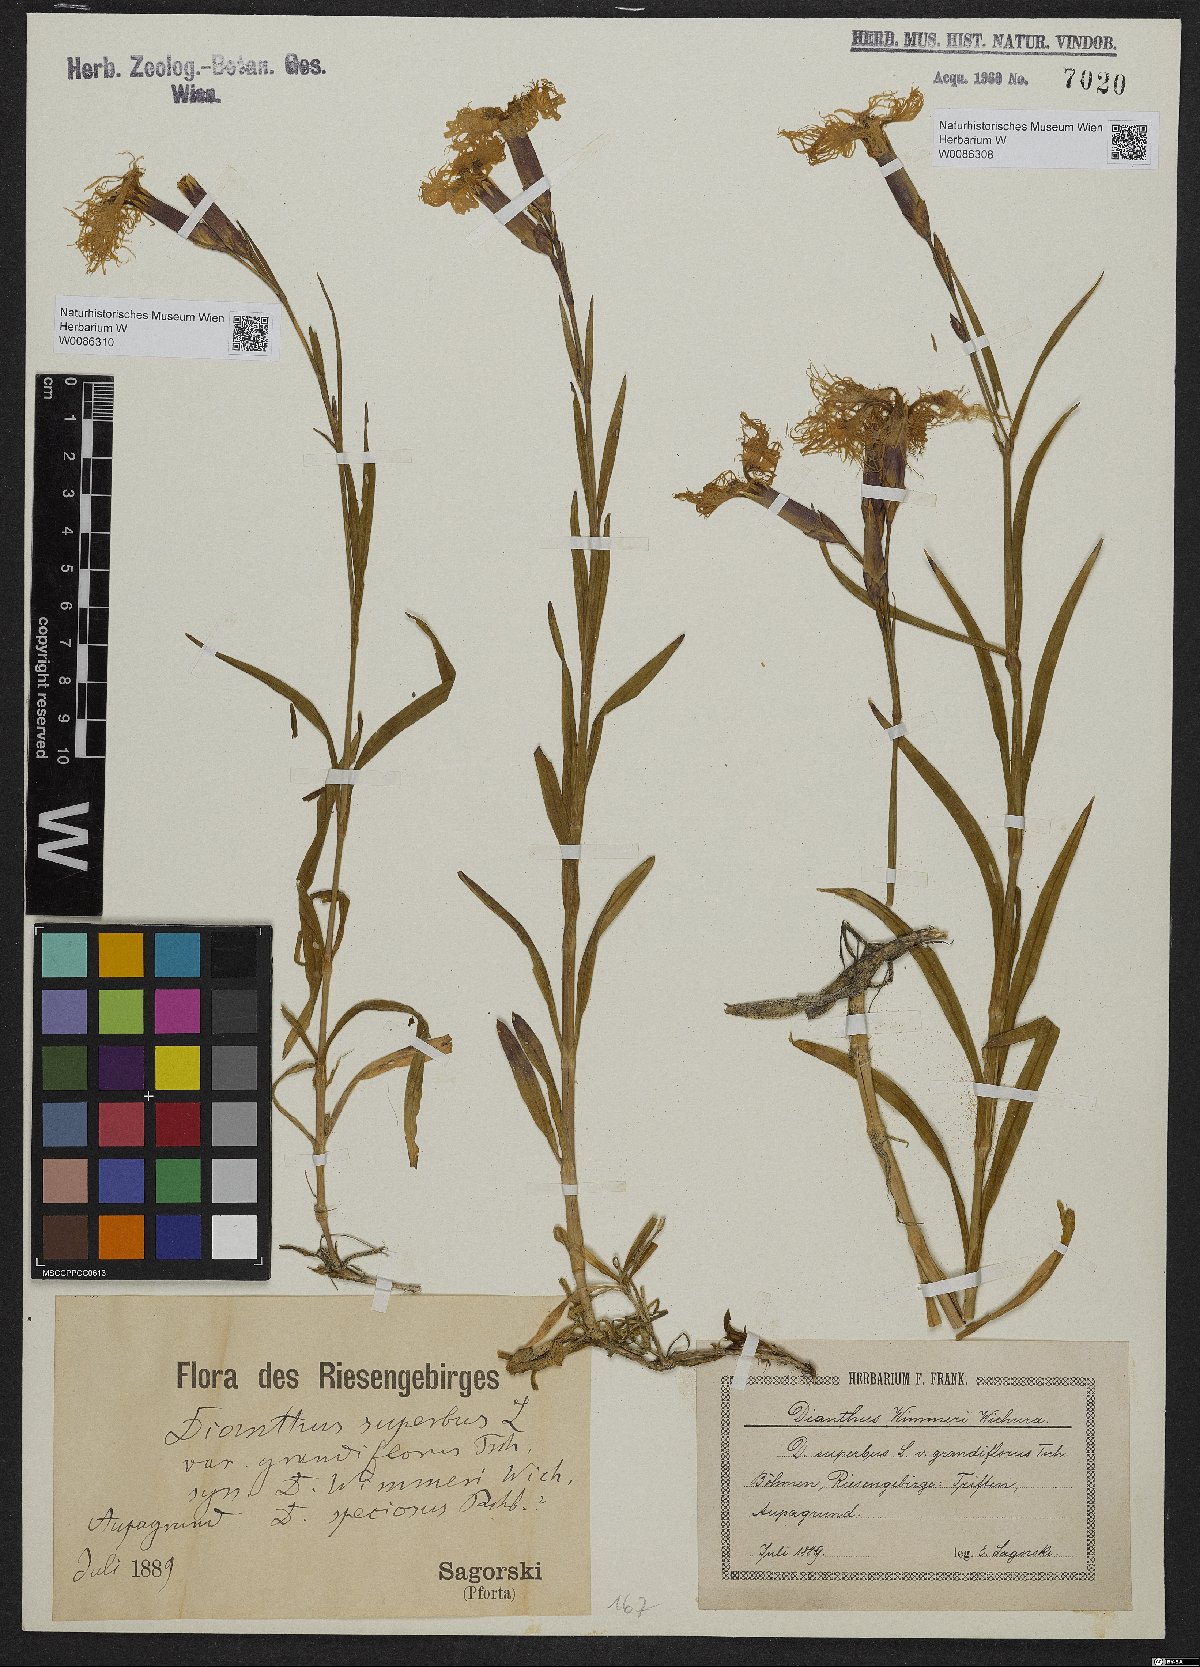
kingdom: Plantae
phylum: Tracheophyta
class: Magnoliopsida
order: Caryophyllales
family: Caryophyllaceae
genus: Dianthus
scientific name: Dianthus superbus
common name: Fringed pink
